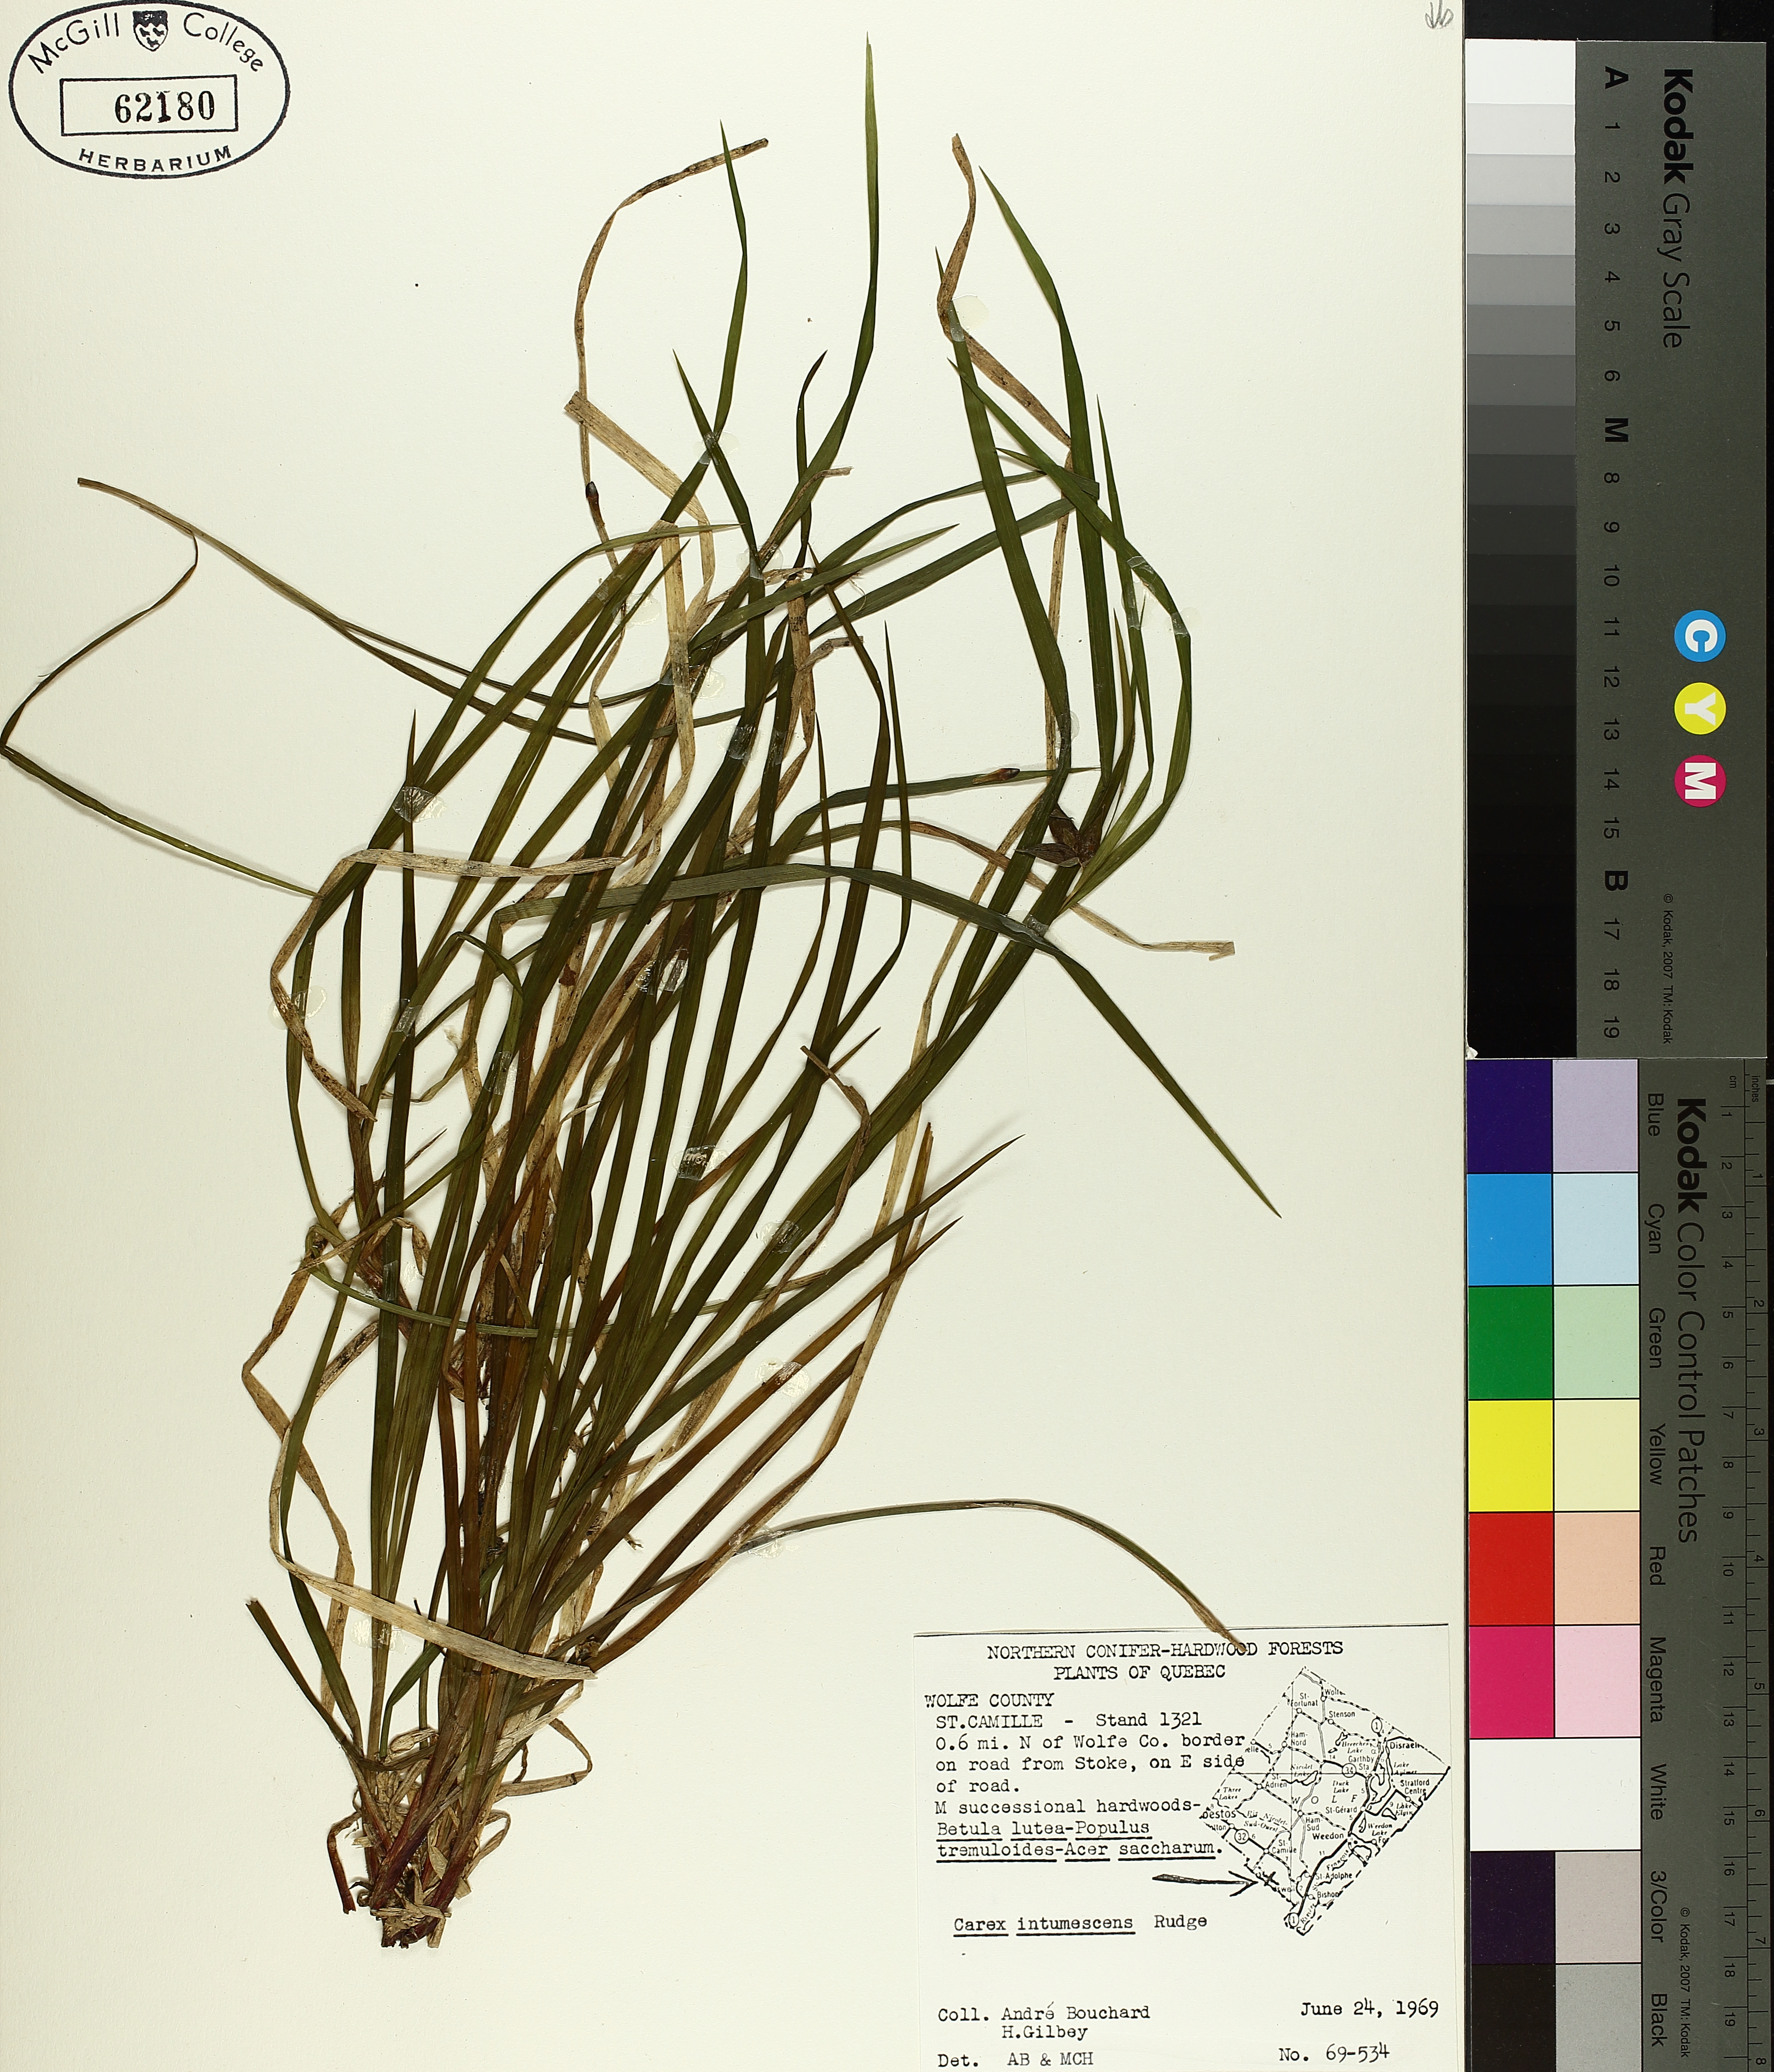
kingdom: Plantae
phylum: Tracheophyta
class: Liliopsida
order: Poales
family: Cyperaceae
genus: Carex
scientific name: Carex intumescens
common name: Greater bladder sedge
